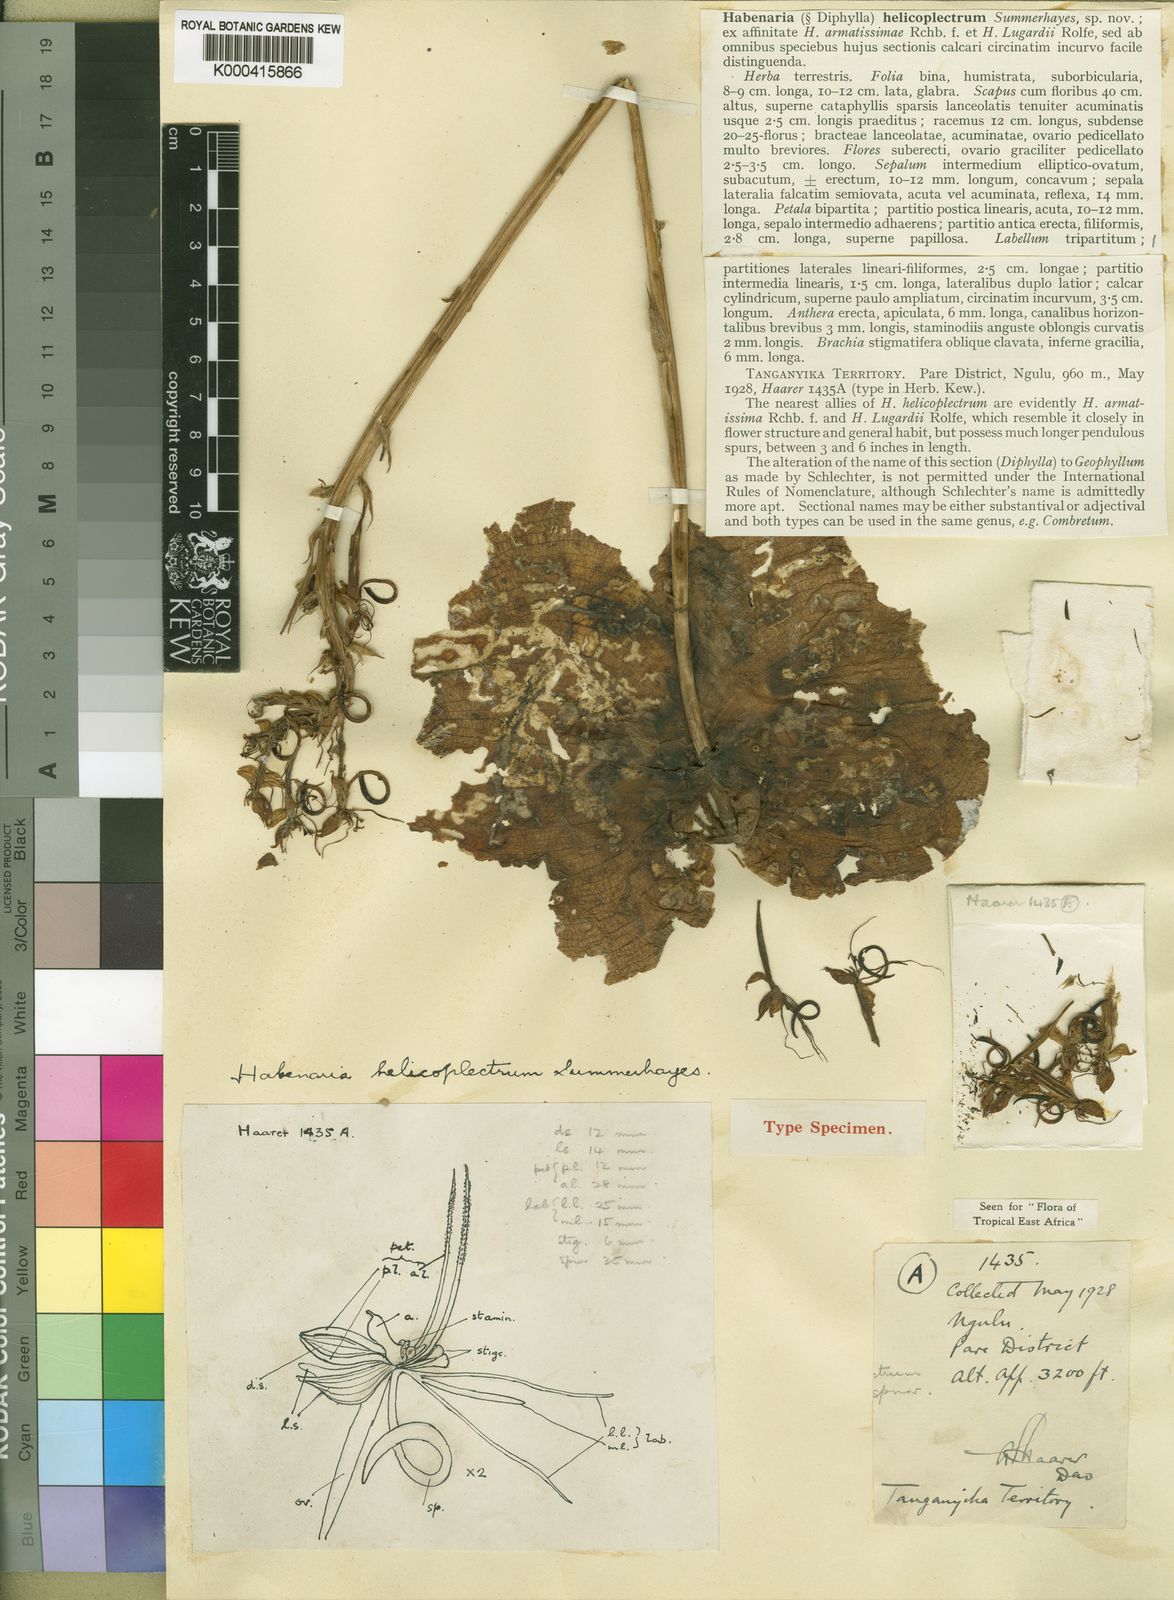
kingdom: Plantae
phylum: Tracheophyta
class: Liliopsida
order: Asparagales
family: Orchidaceae
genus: Habenaria
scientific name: Habenaria helicoplectrum
